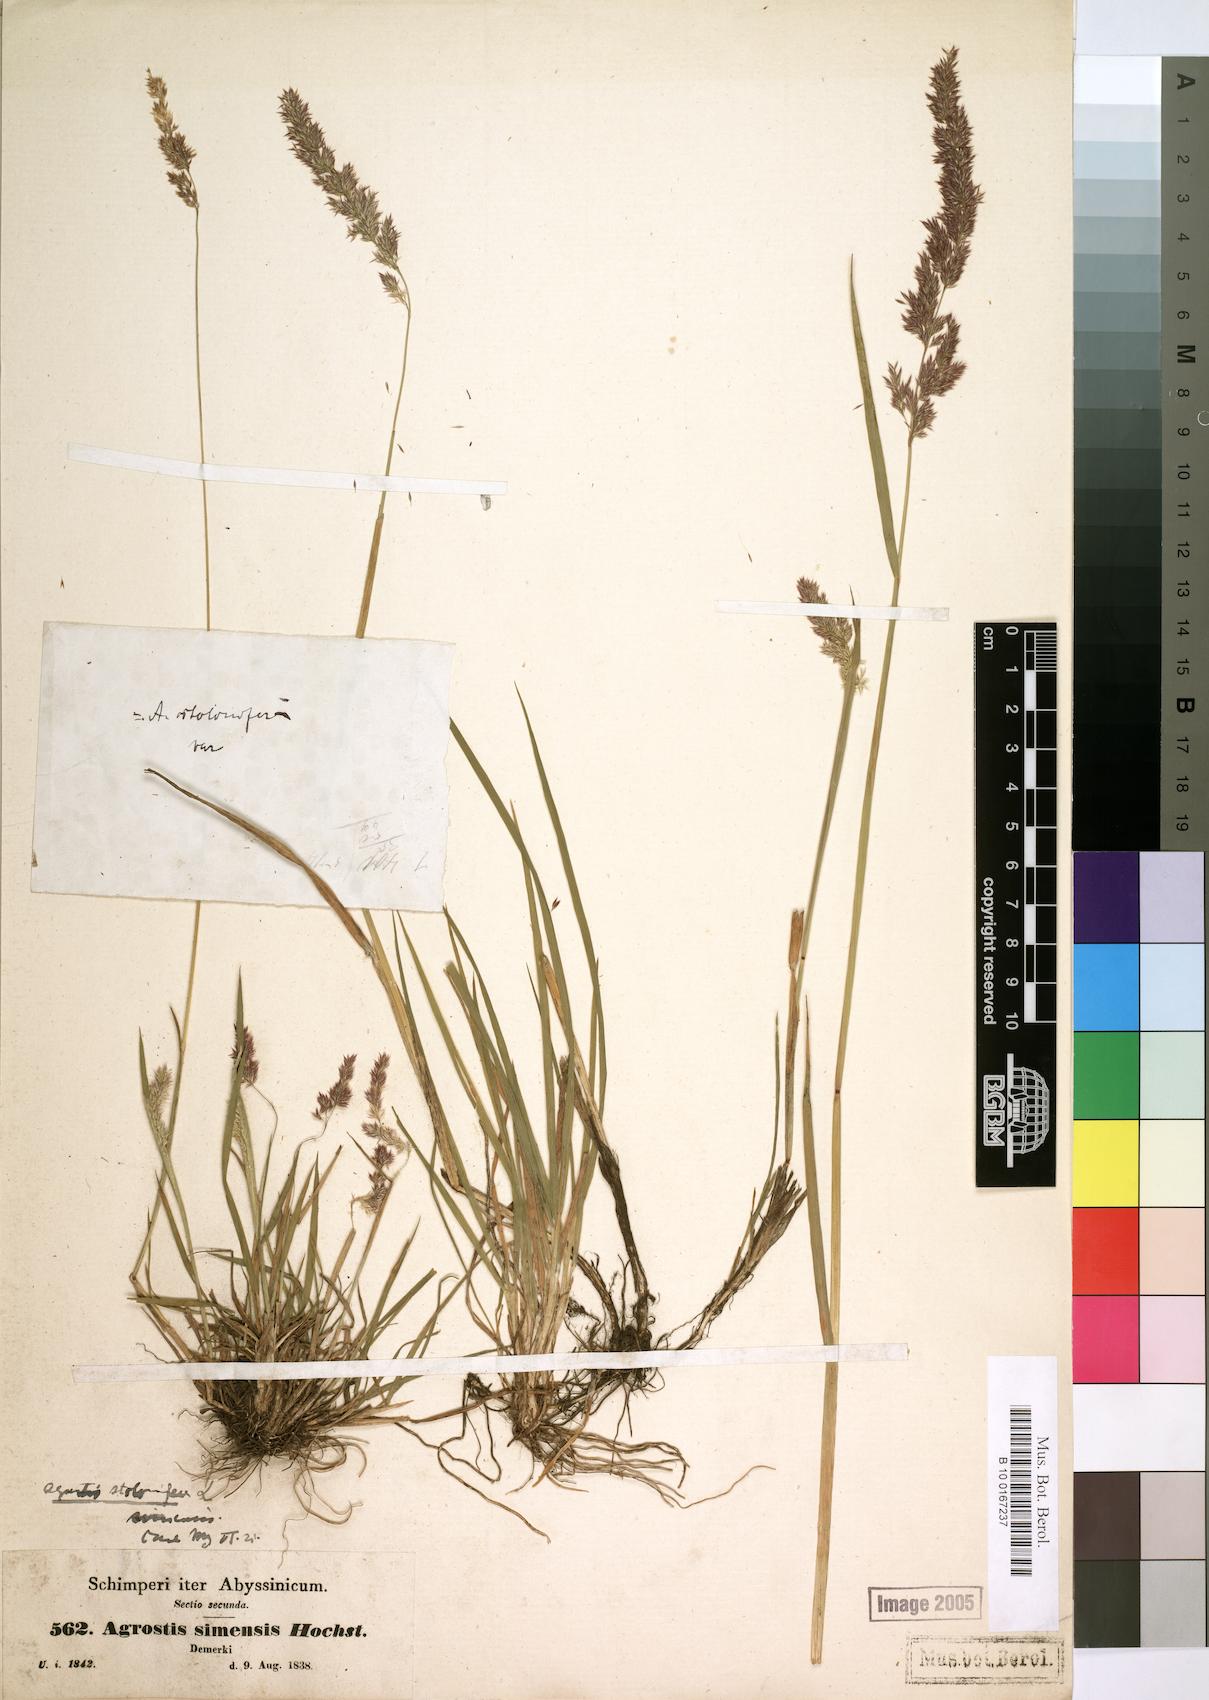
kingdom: Plantae
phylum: Tracheophyta
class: Liliopsida
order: Poales
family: Poaceae
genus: Polypogon
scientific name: Polypogon schimperianus
